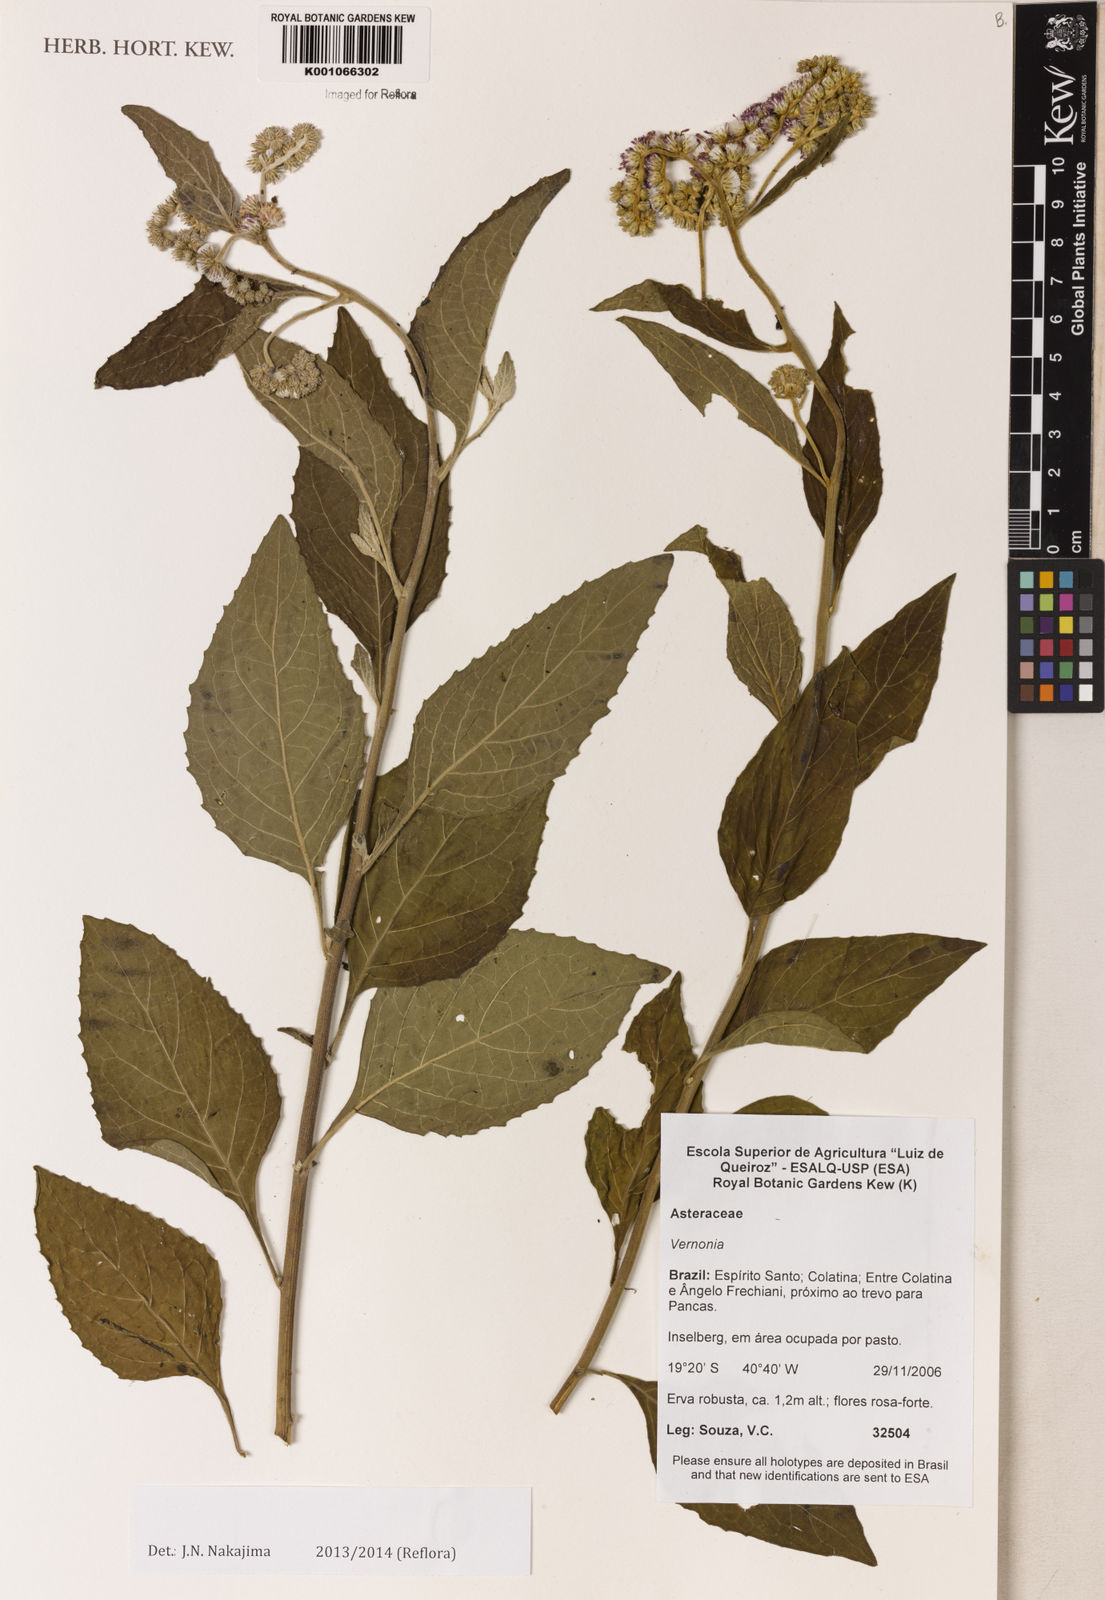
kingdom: Plantae
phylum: Tracheophyta
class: Magnoliopsida
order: Asterales
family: Asteraceae
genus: Cyrtocymura
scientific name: Cyrtocymura scorpioides
